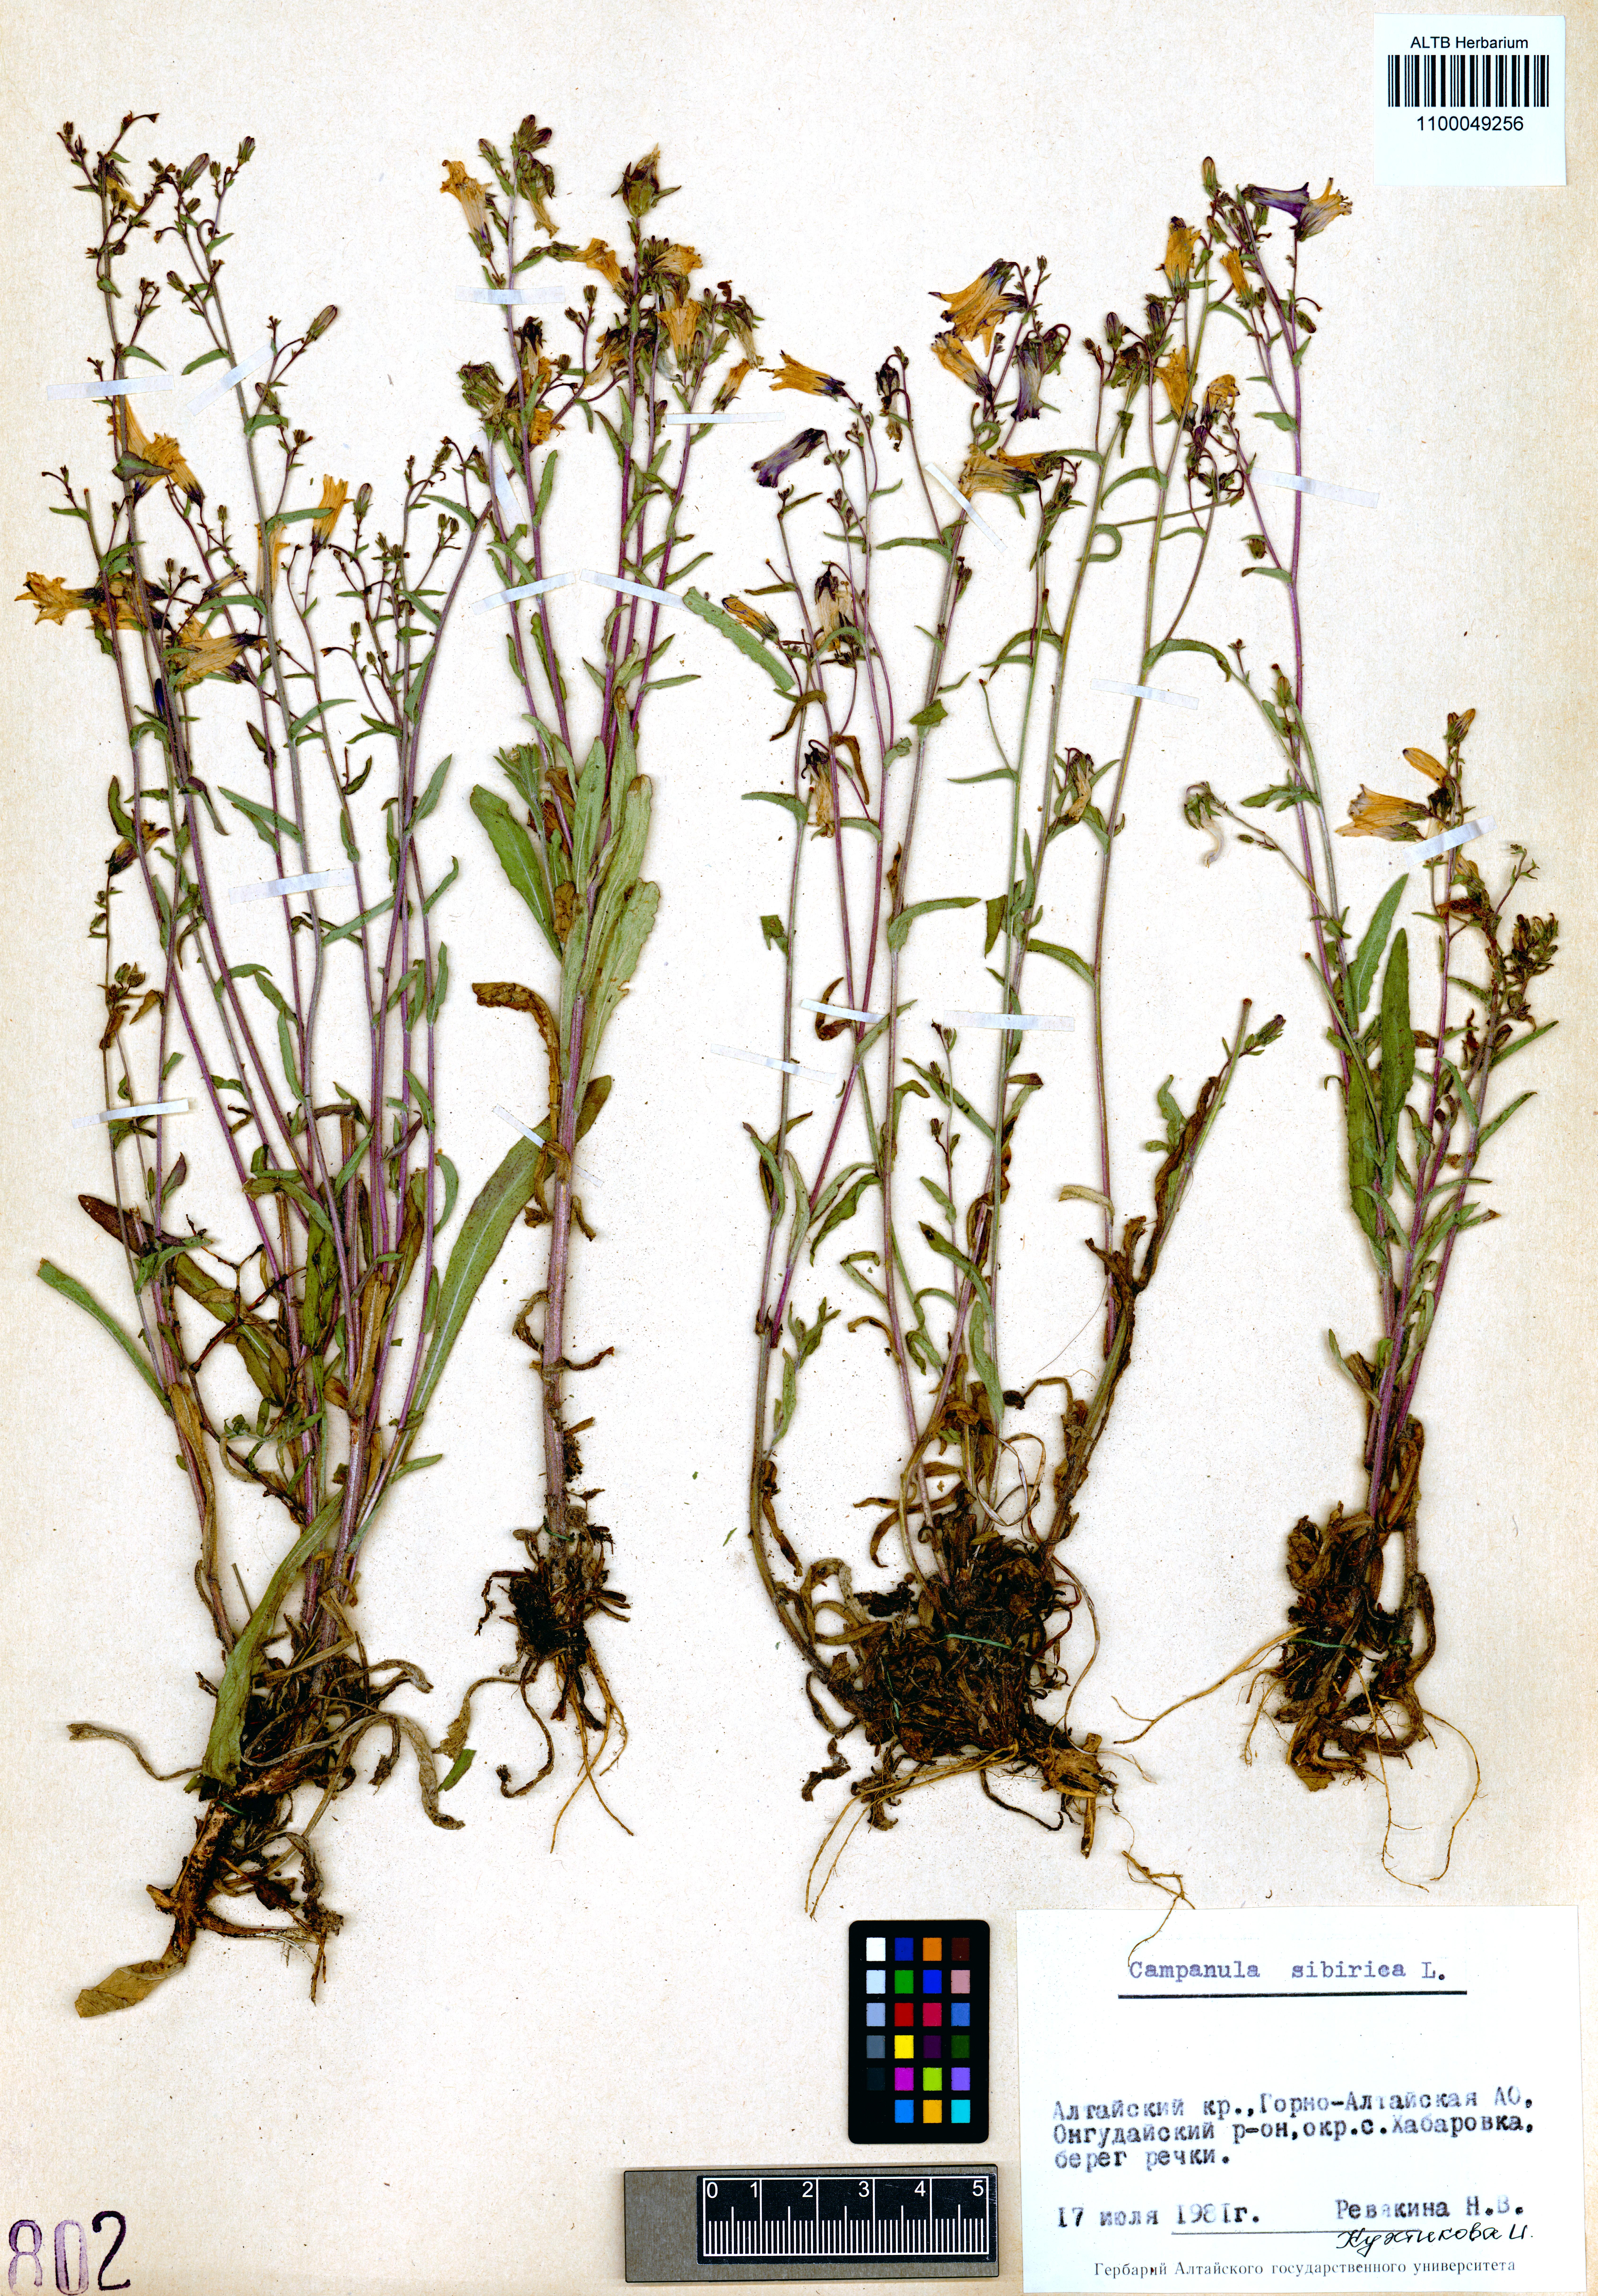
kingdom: Plantae
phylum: Tracheophyta
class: Magnoliopsida
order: Asterales
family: Campanulaceae
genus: Campanula
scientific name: Campanula sibirica
